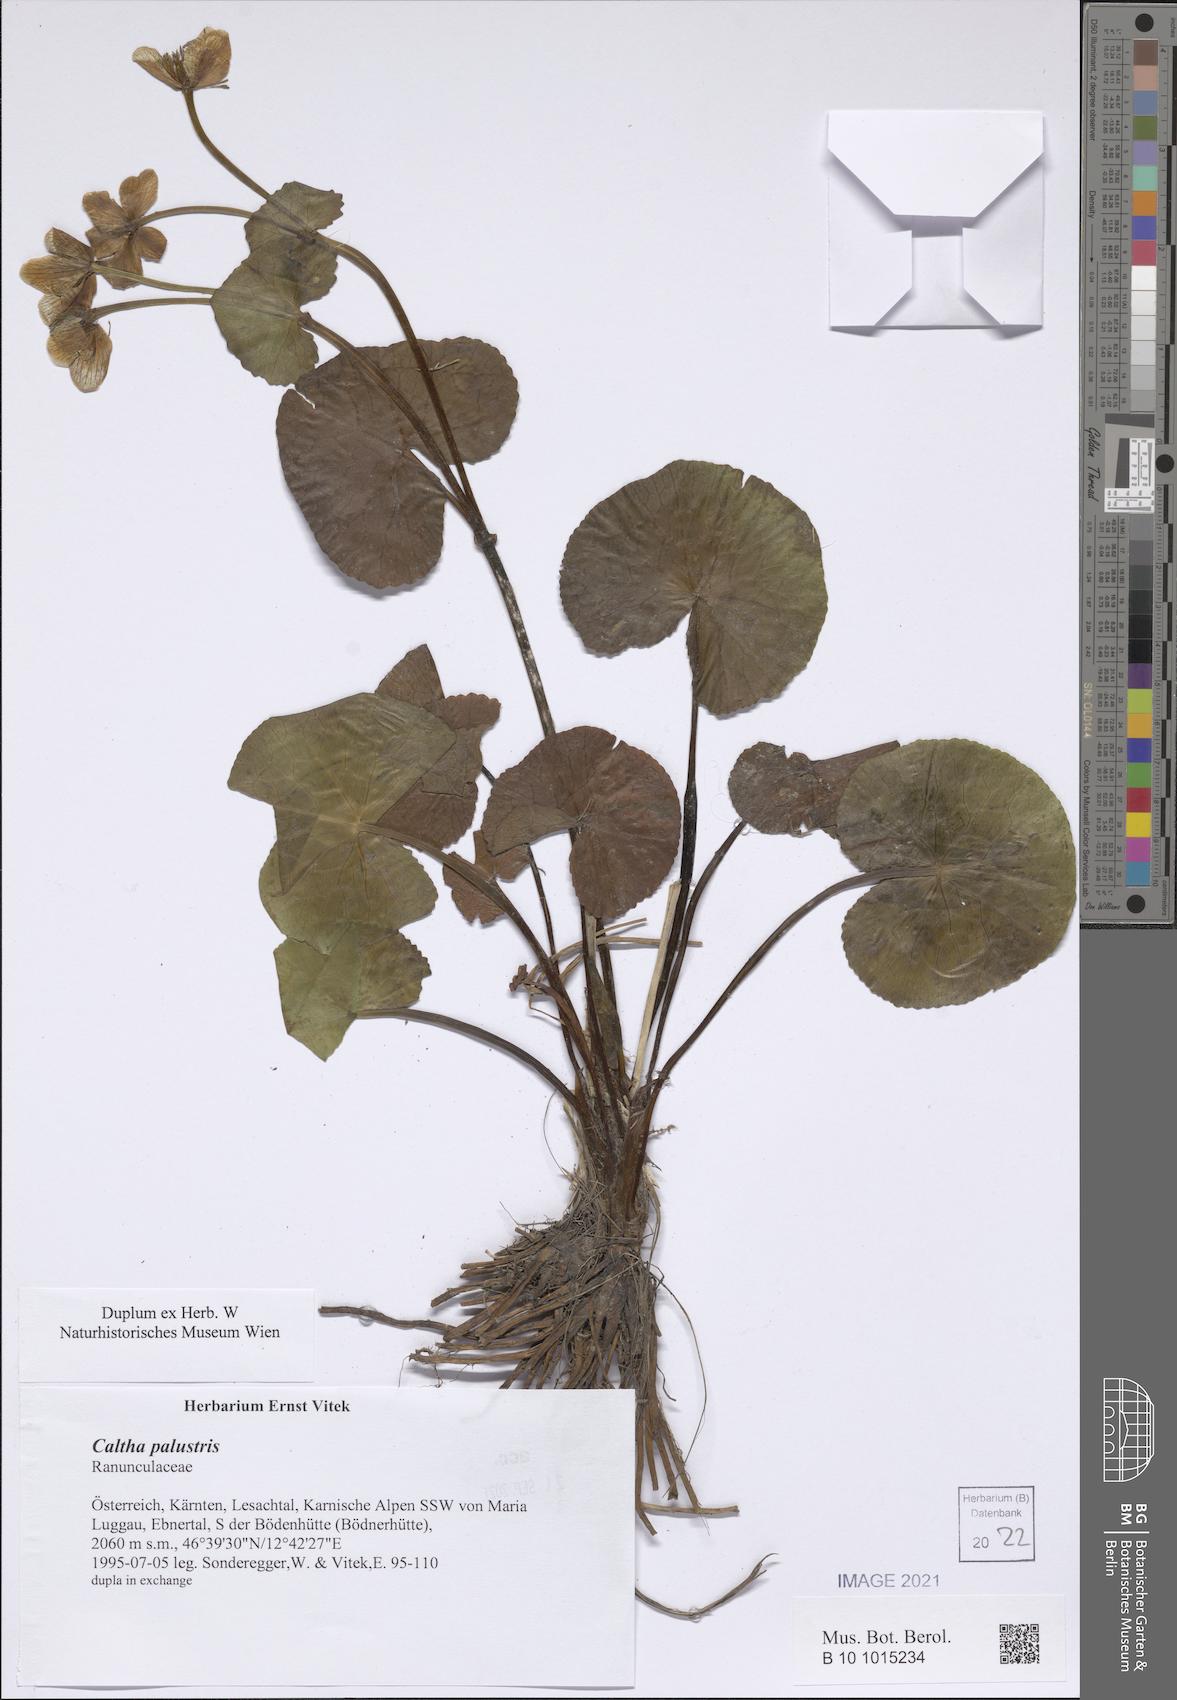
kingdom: Plantae
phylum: Tracheophyta
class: Magnoliopsida
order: Ranunculales
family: Ranunculaceae
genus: Caltha
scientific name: Caltha palustris
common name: Marsh marigold
